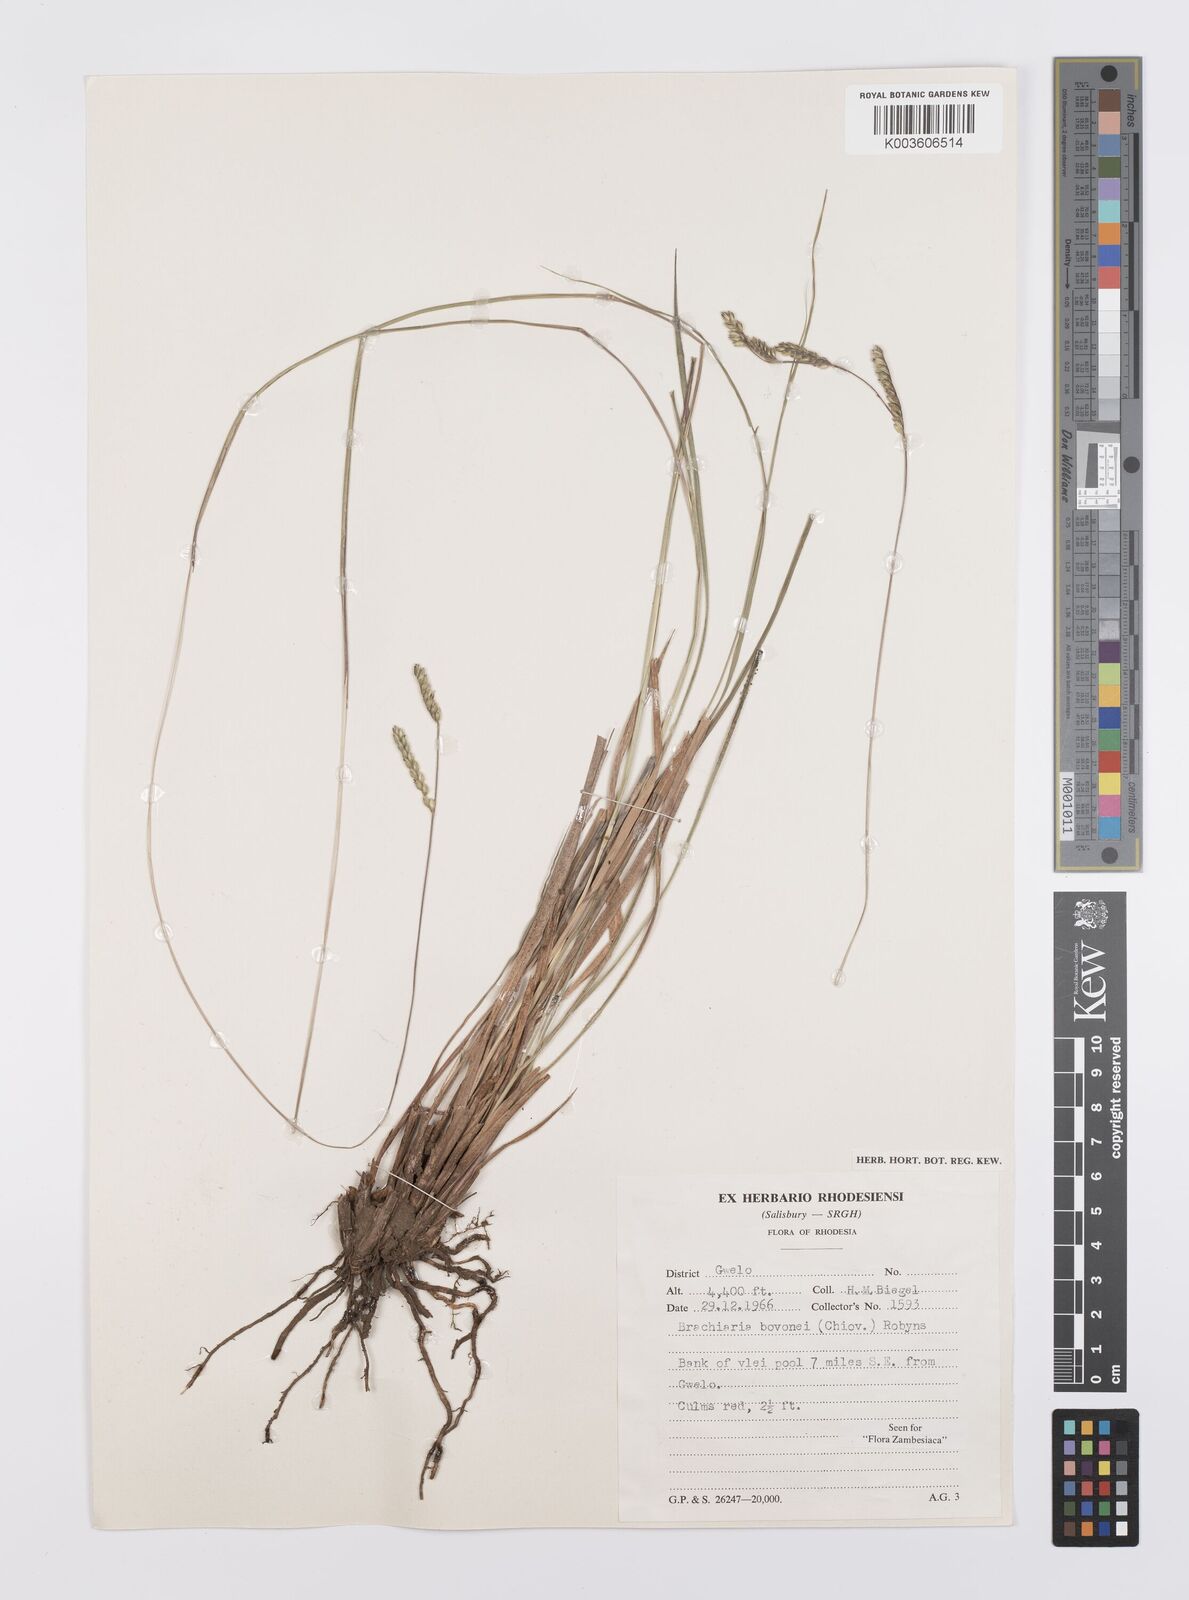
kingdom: Plantae
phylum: Tracheophyta
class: Liliopsida
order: Poales
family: Poaceae
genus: Urochloa
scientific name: Urochloa bovonei
